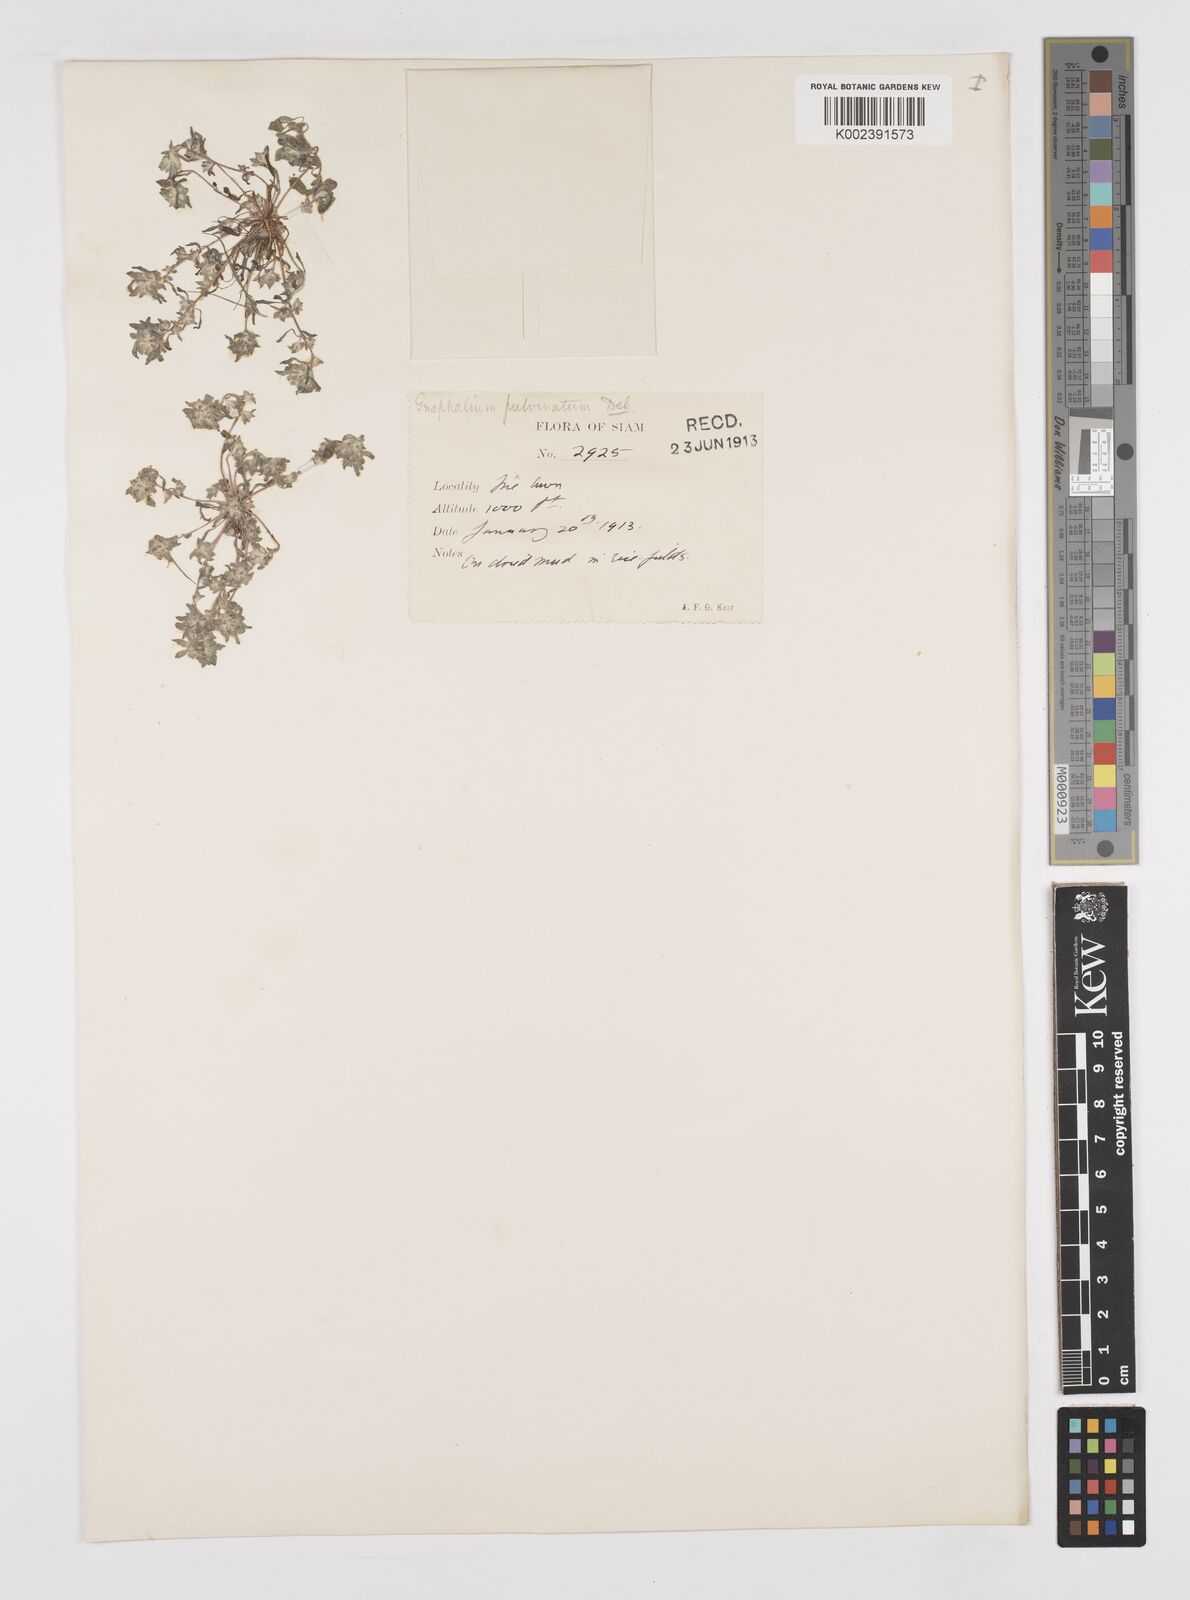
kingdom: Plantae
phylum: Tracheophyta
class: Magnoliopsida
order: Asterales
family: Asteraceae
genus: Gnomophalium
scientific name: Gnomophalium pulvinatum
